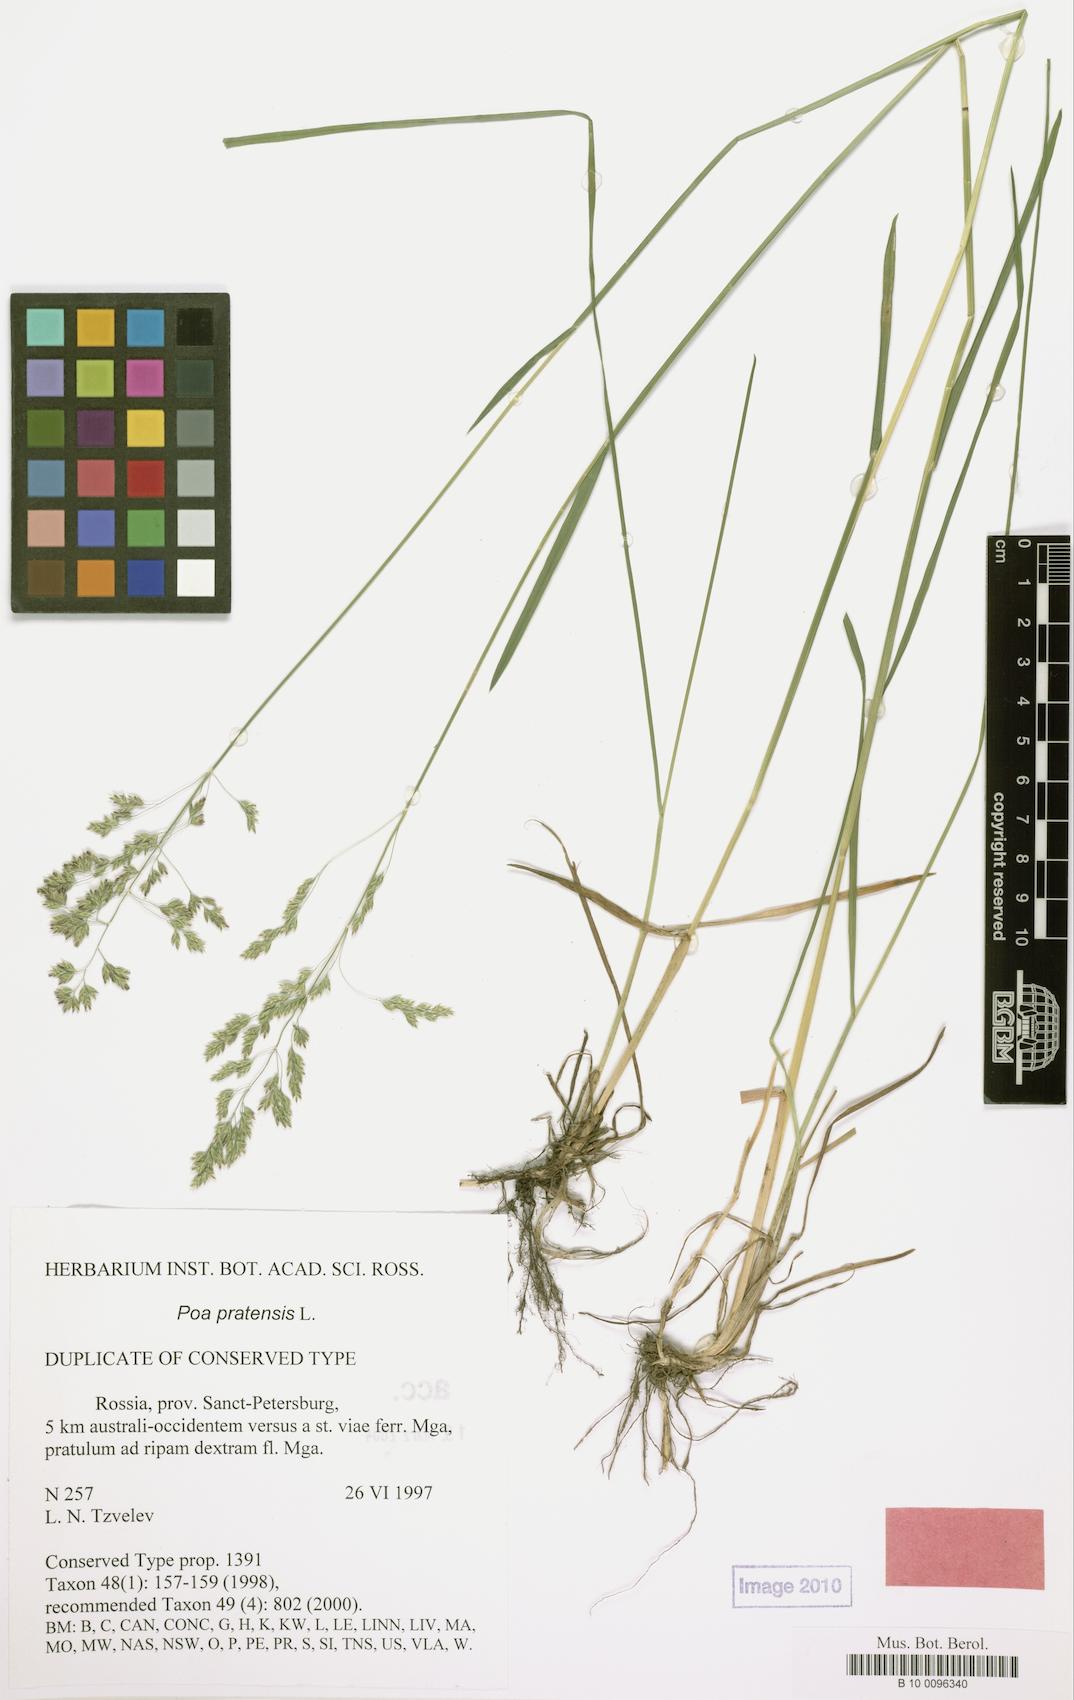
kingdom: Plantae
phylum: Tracheophyta
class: Liliopsida
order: Poales
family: Poaceae
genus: Poa
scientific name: Poa pratensis
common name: Kentucky bluegrass
